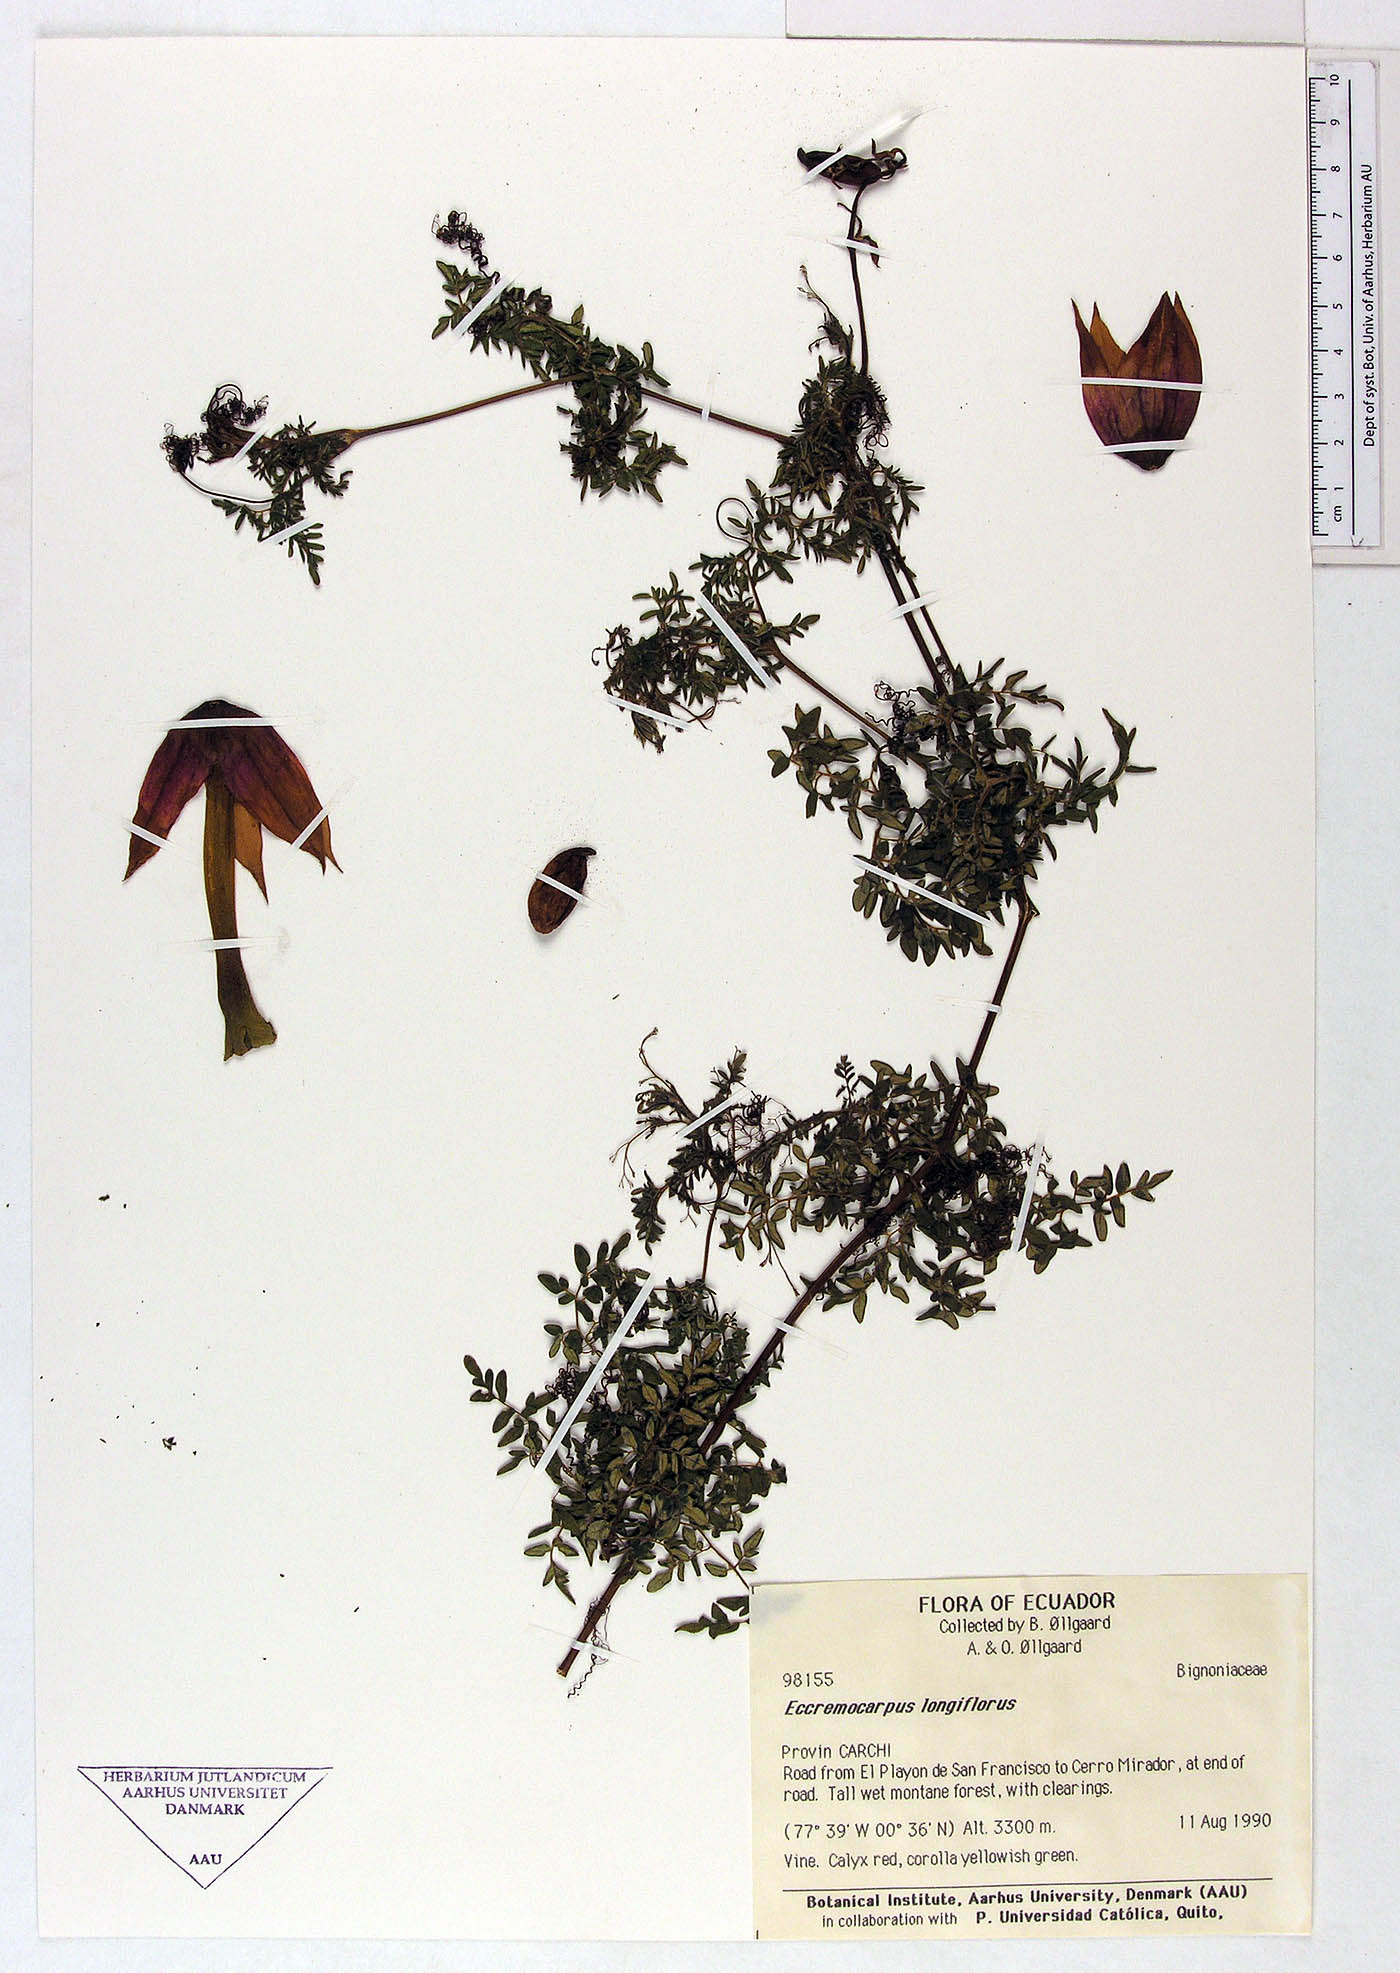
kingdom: Plantae
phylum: Tracheophyta
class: Magnoliopsida
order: Lamiales
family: Bignoniaceae
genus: Eccremocarpus
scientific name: Eccremocarpus viridis
